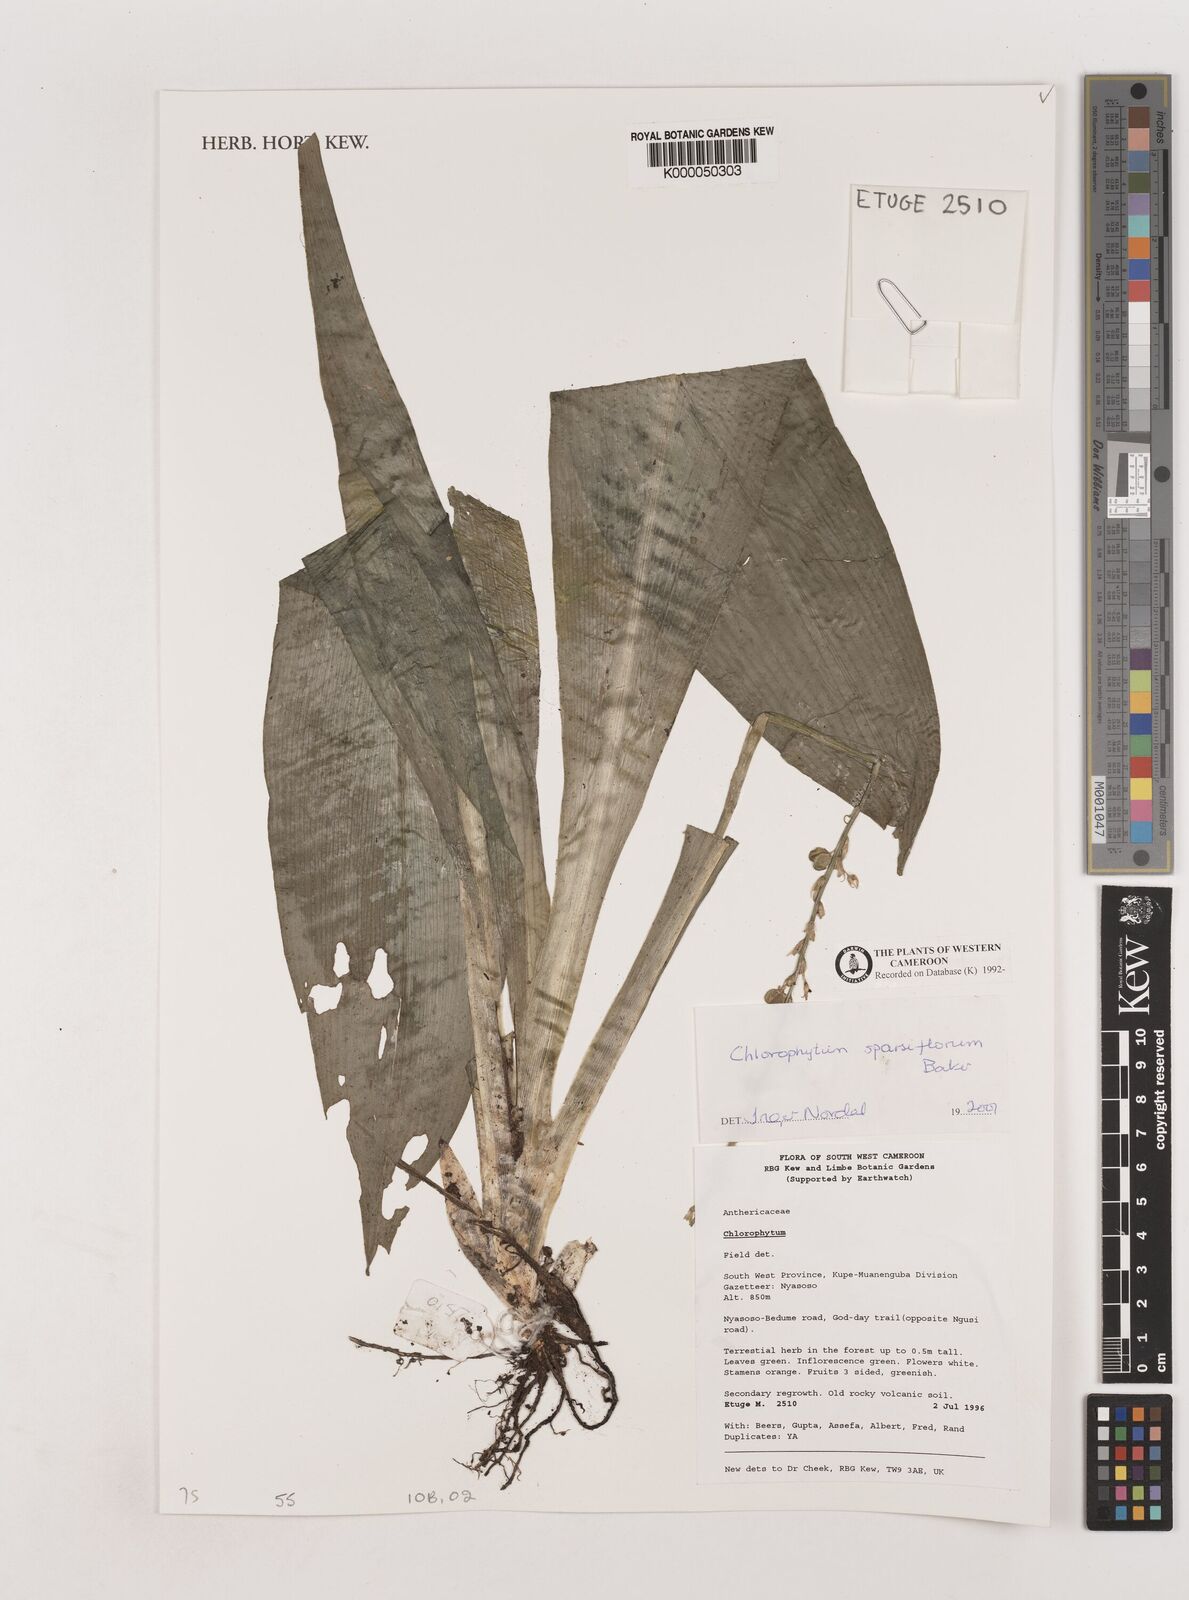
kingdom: Plantae
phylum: Tracheophyta
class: Liliopsida
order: Asparagales
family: Asparagaceae
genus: Chlorophytum
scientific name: Chlorophytum sparsiflorum
